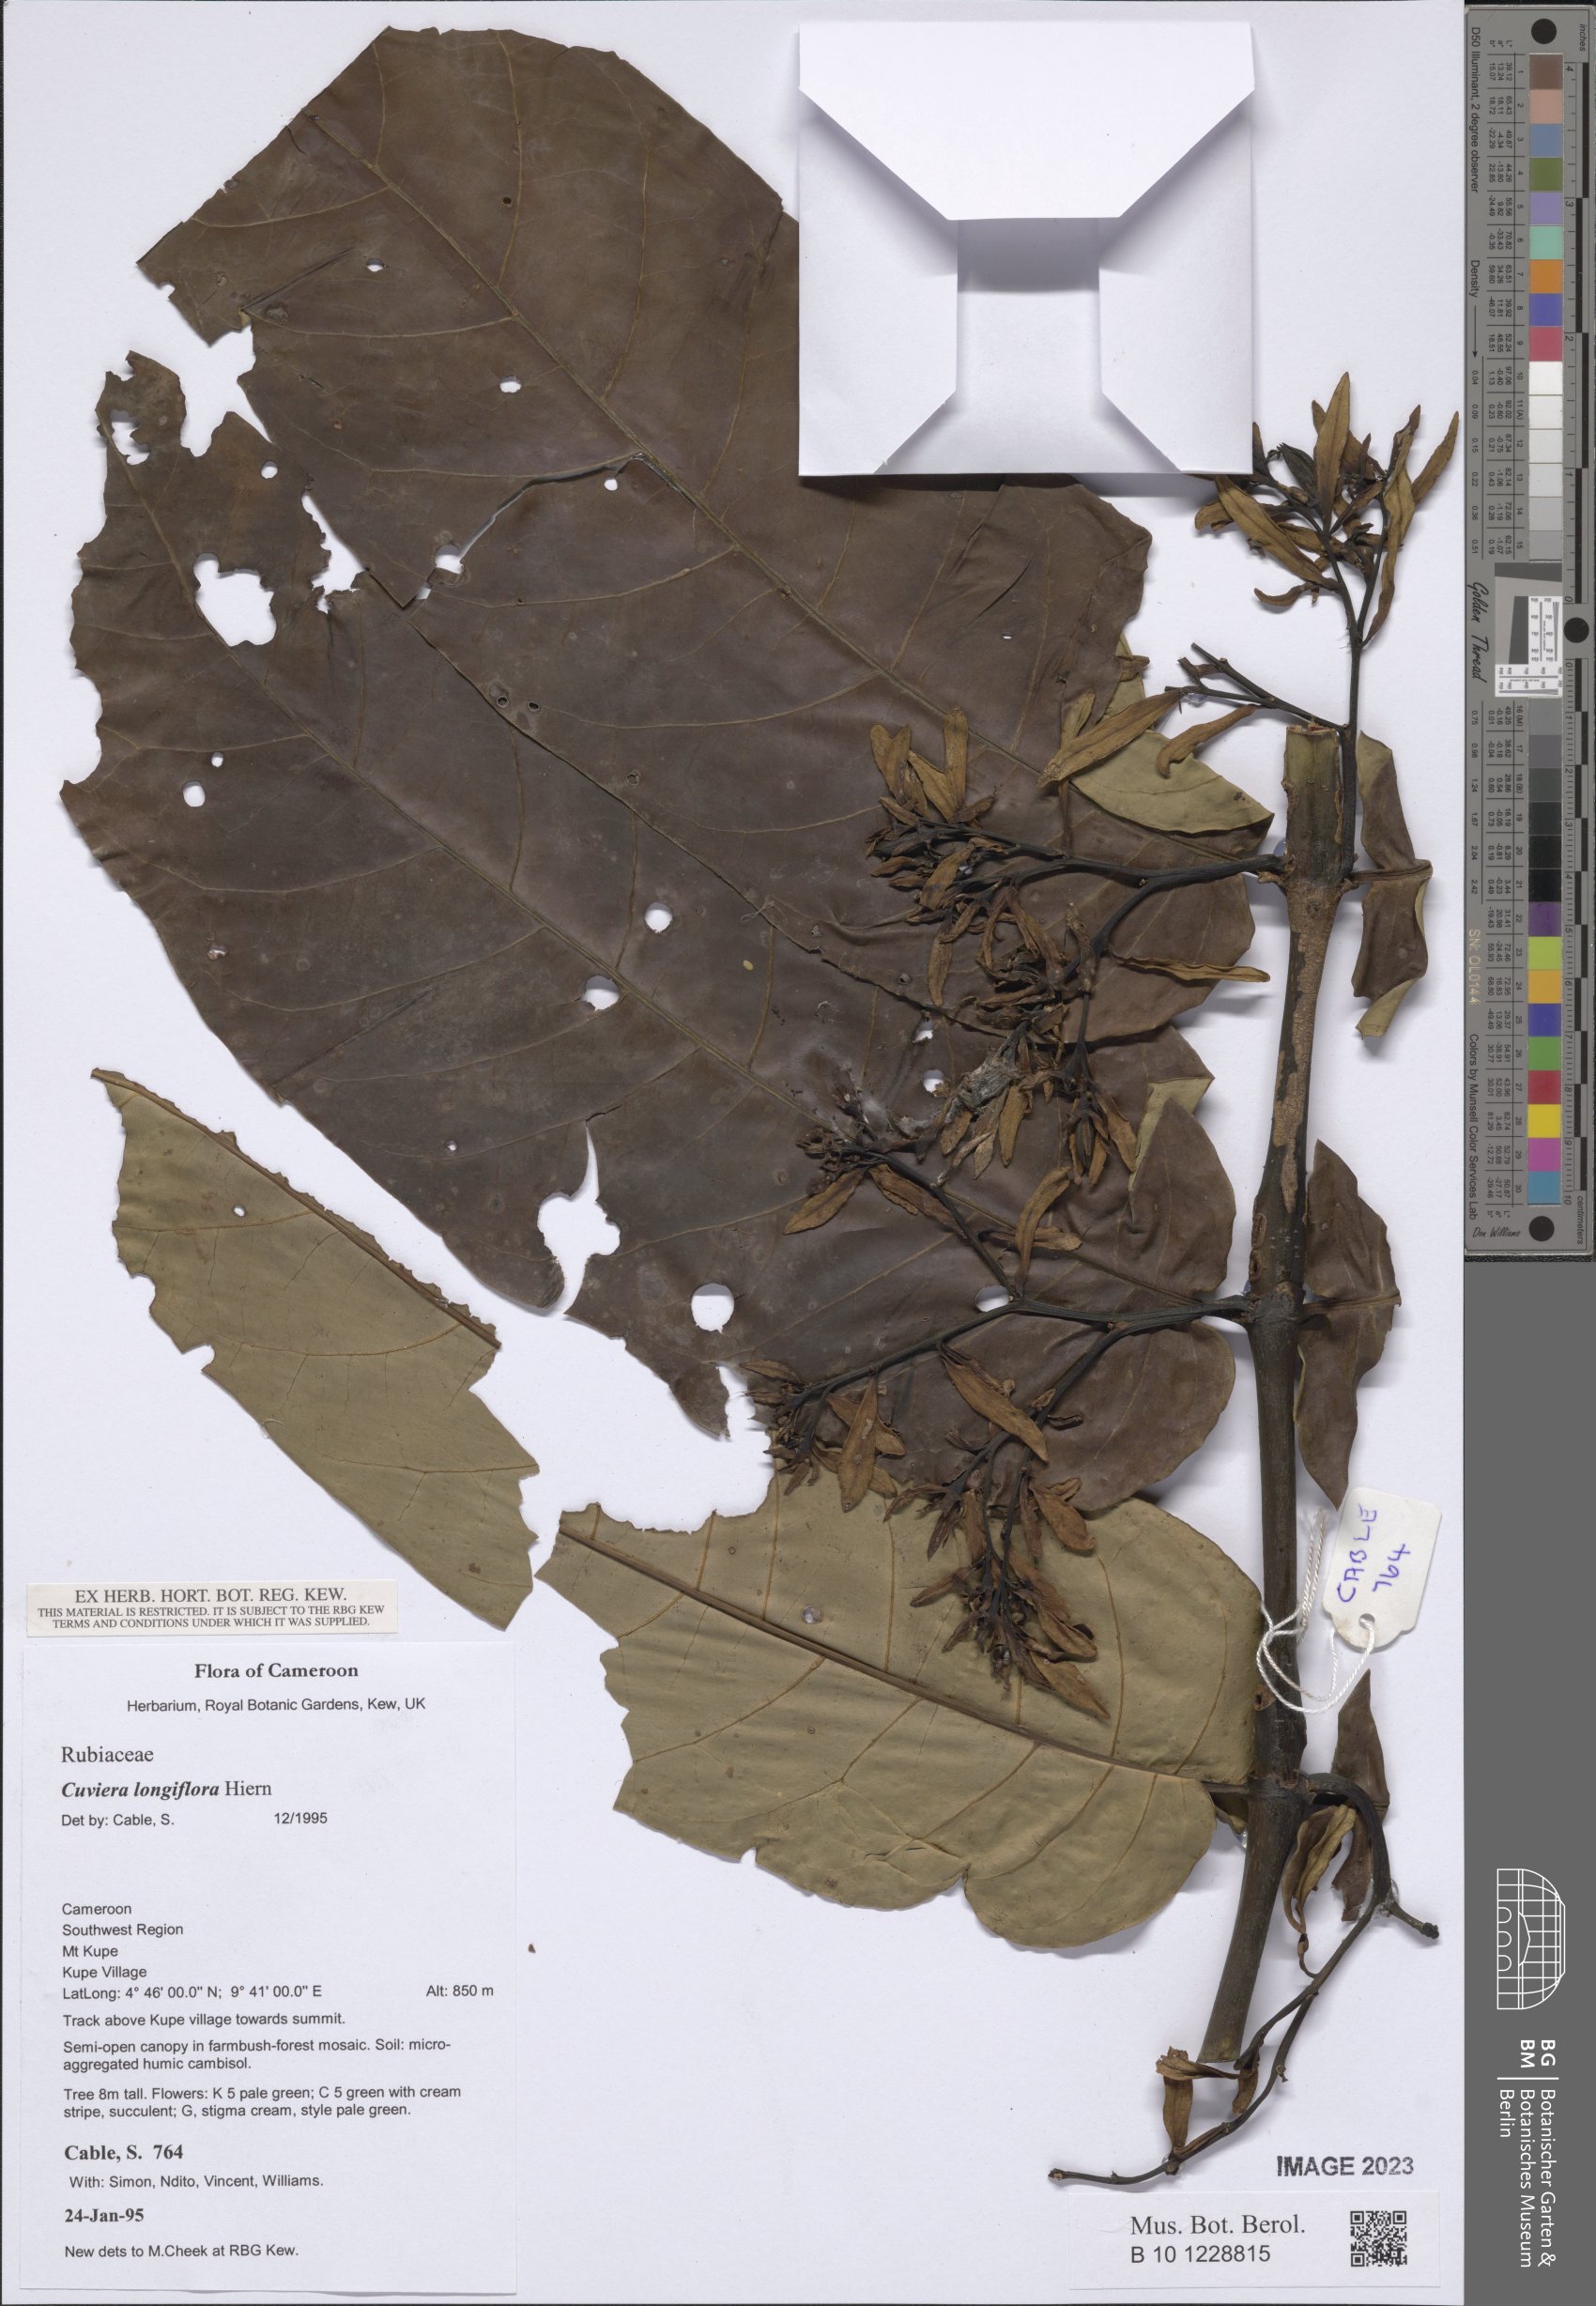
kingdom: Plantae
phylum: Tracheophyta
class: Magnoliopsida
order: Gentianales
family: Rubiaceae
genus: Cuviera
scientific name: Cuviera longiflora
